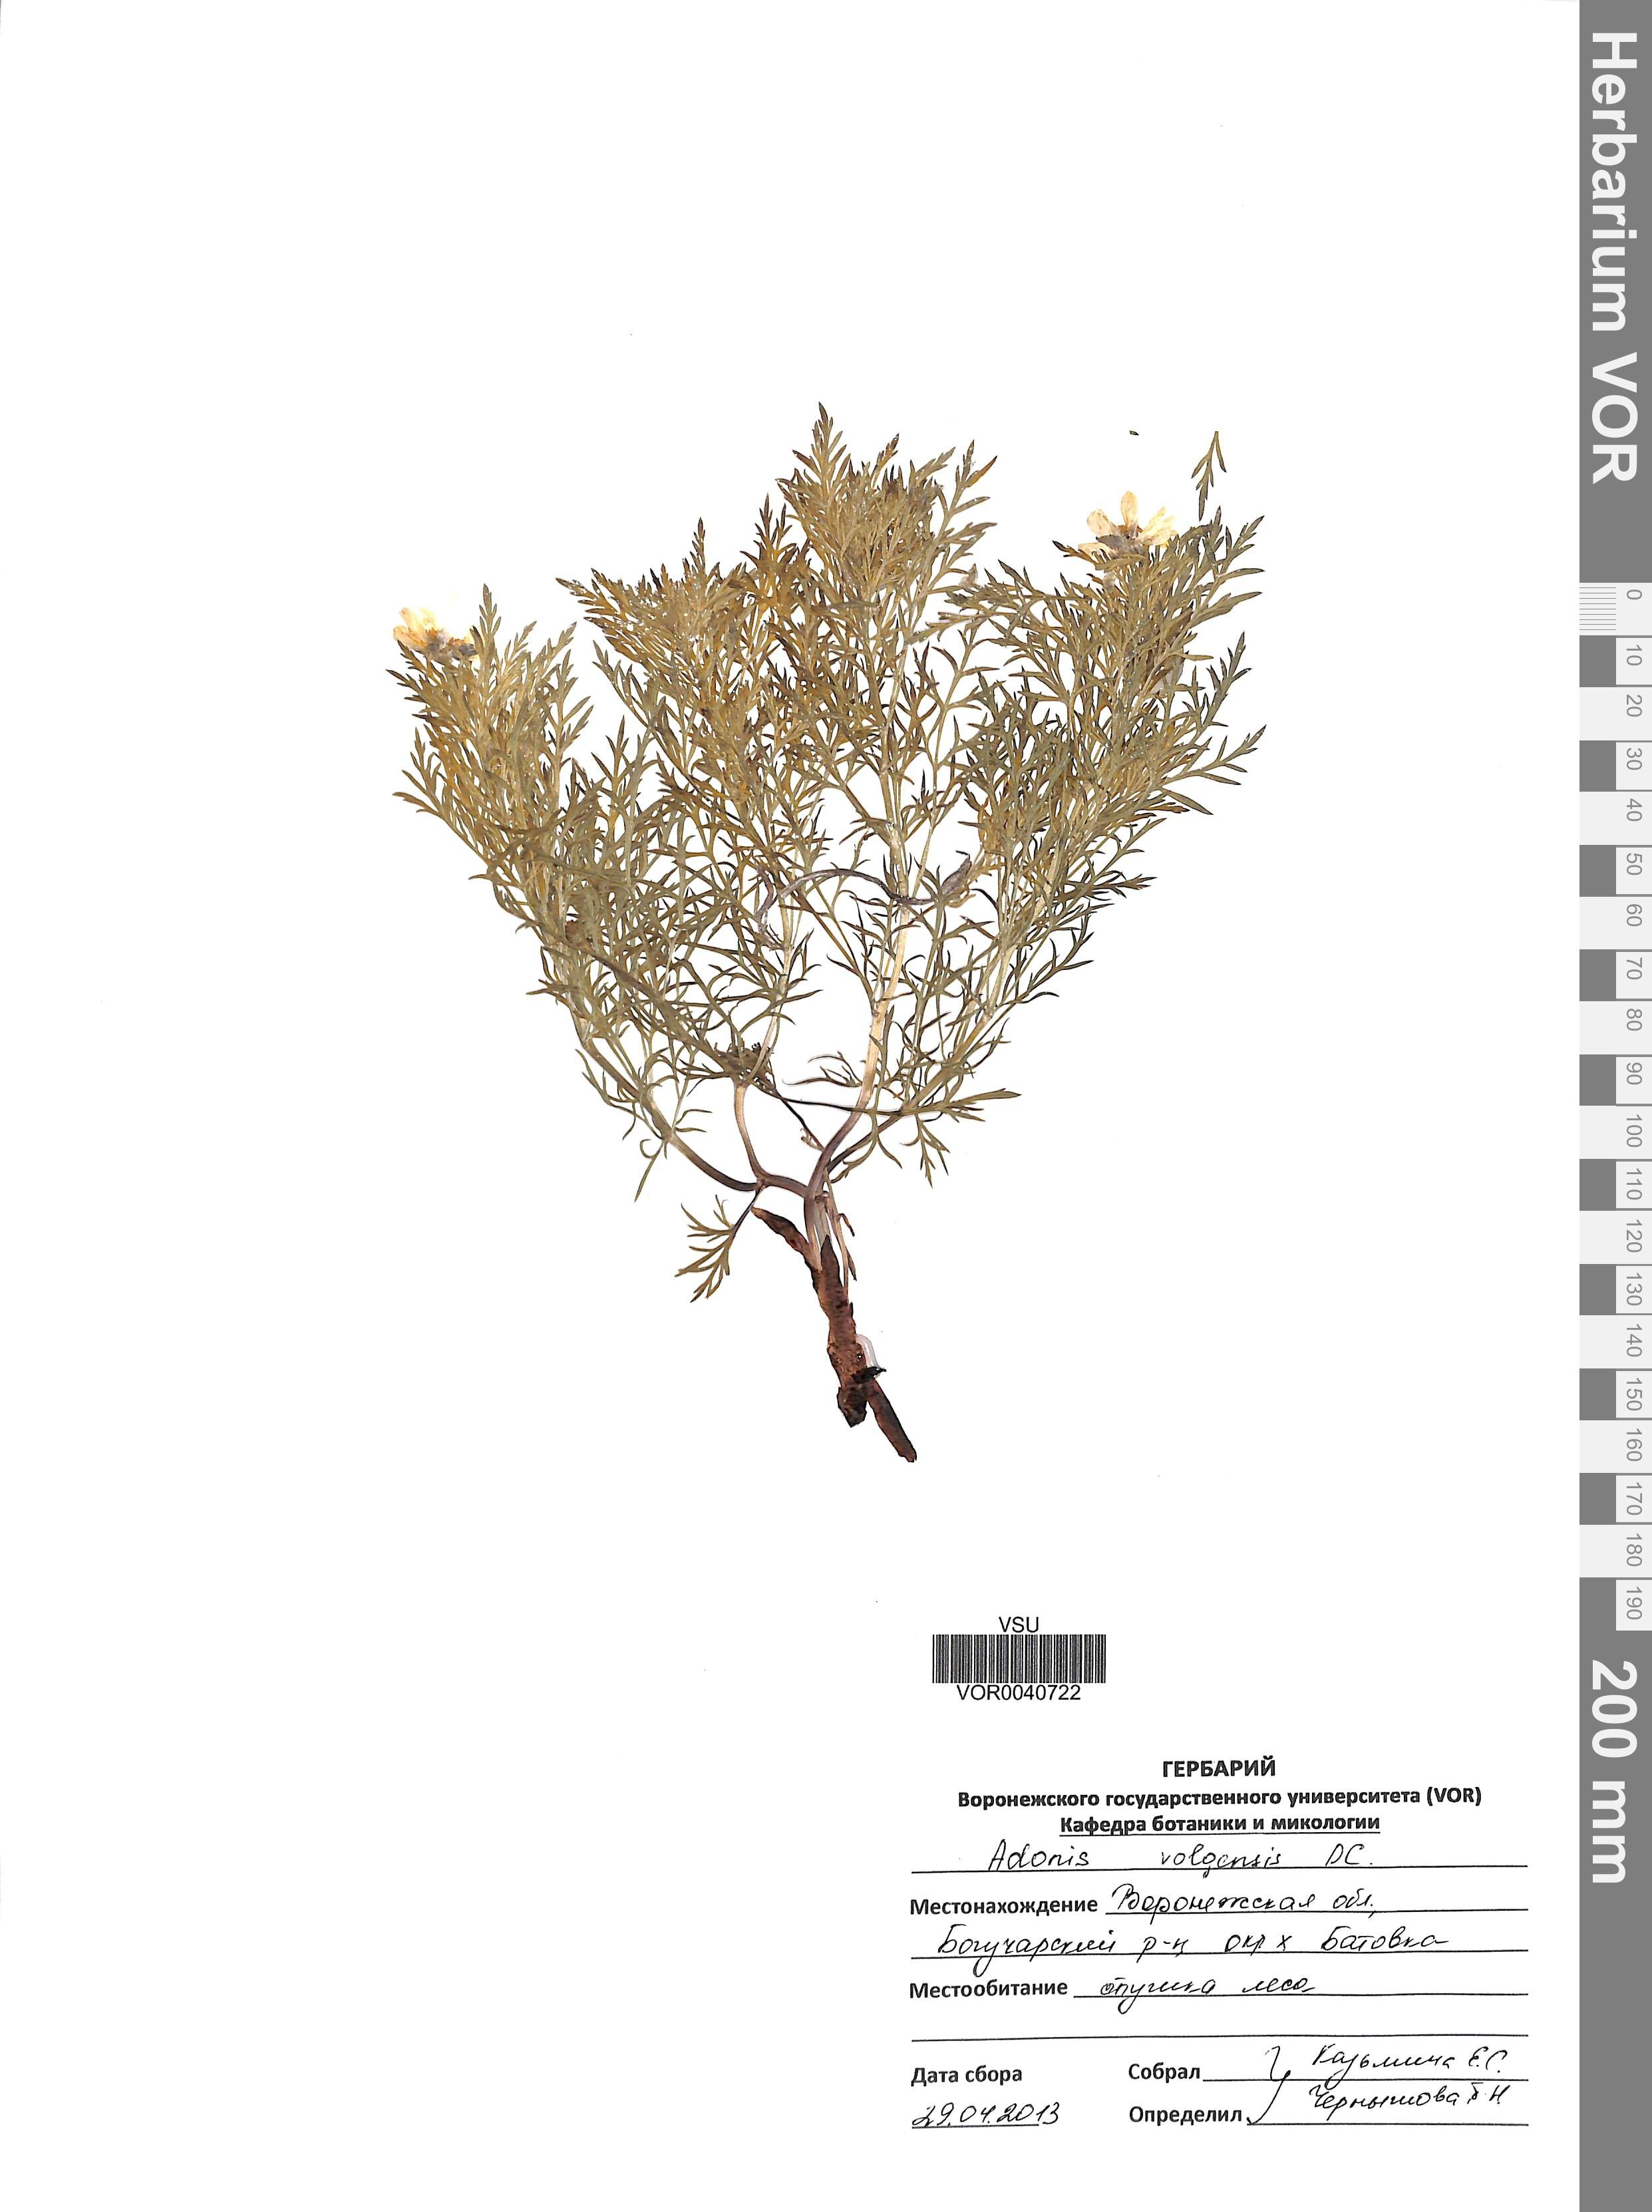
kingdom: Plantae
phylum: Tracheophyta
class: Magnoliopsida
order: Ranunculales
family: Ranunculaceae
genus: Adonis
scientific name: Adonis volgensis
